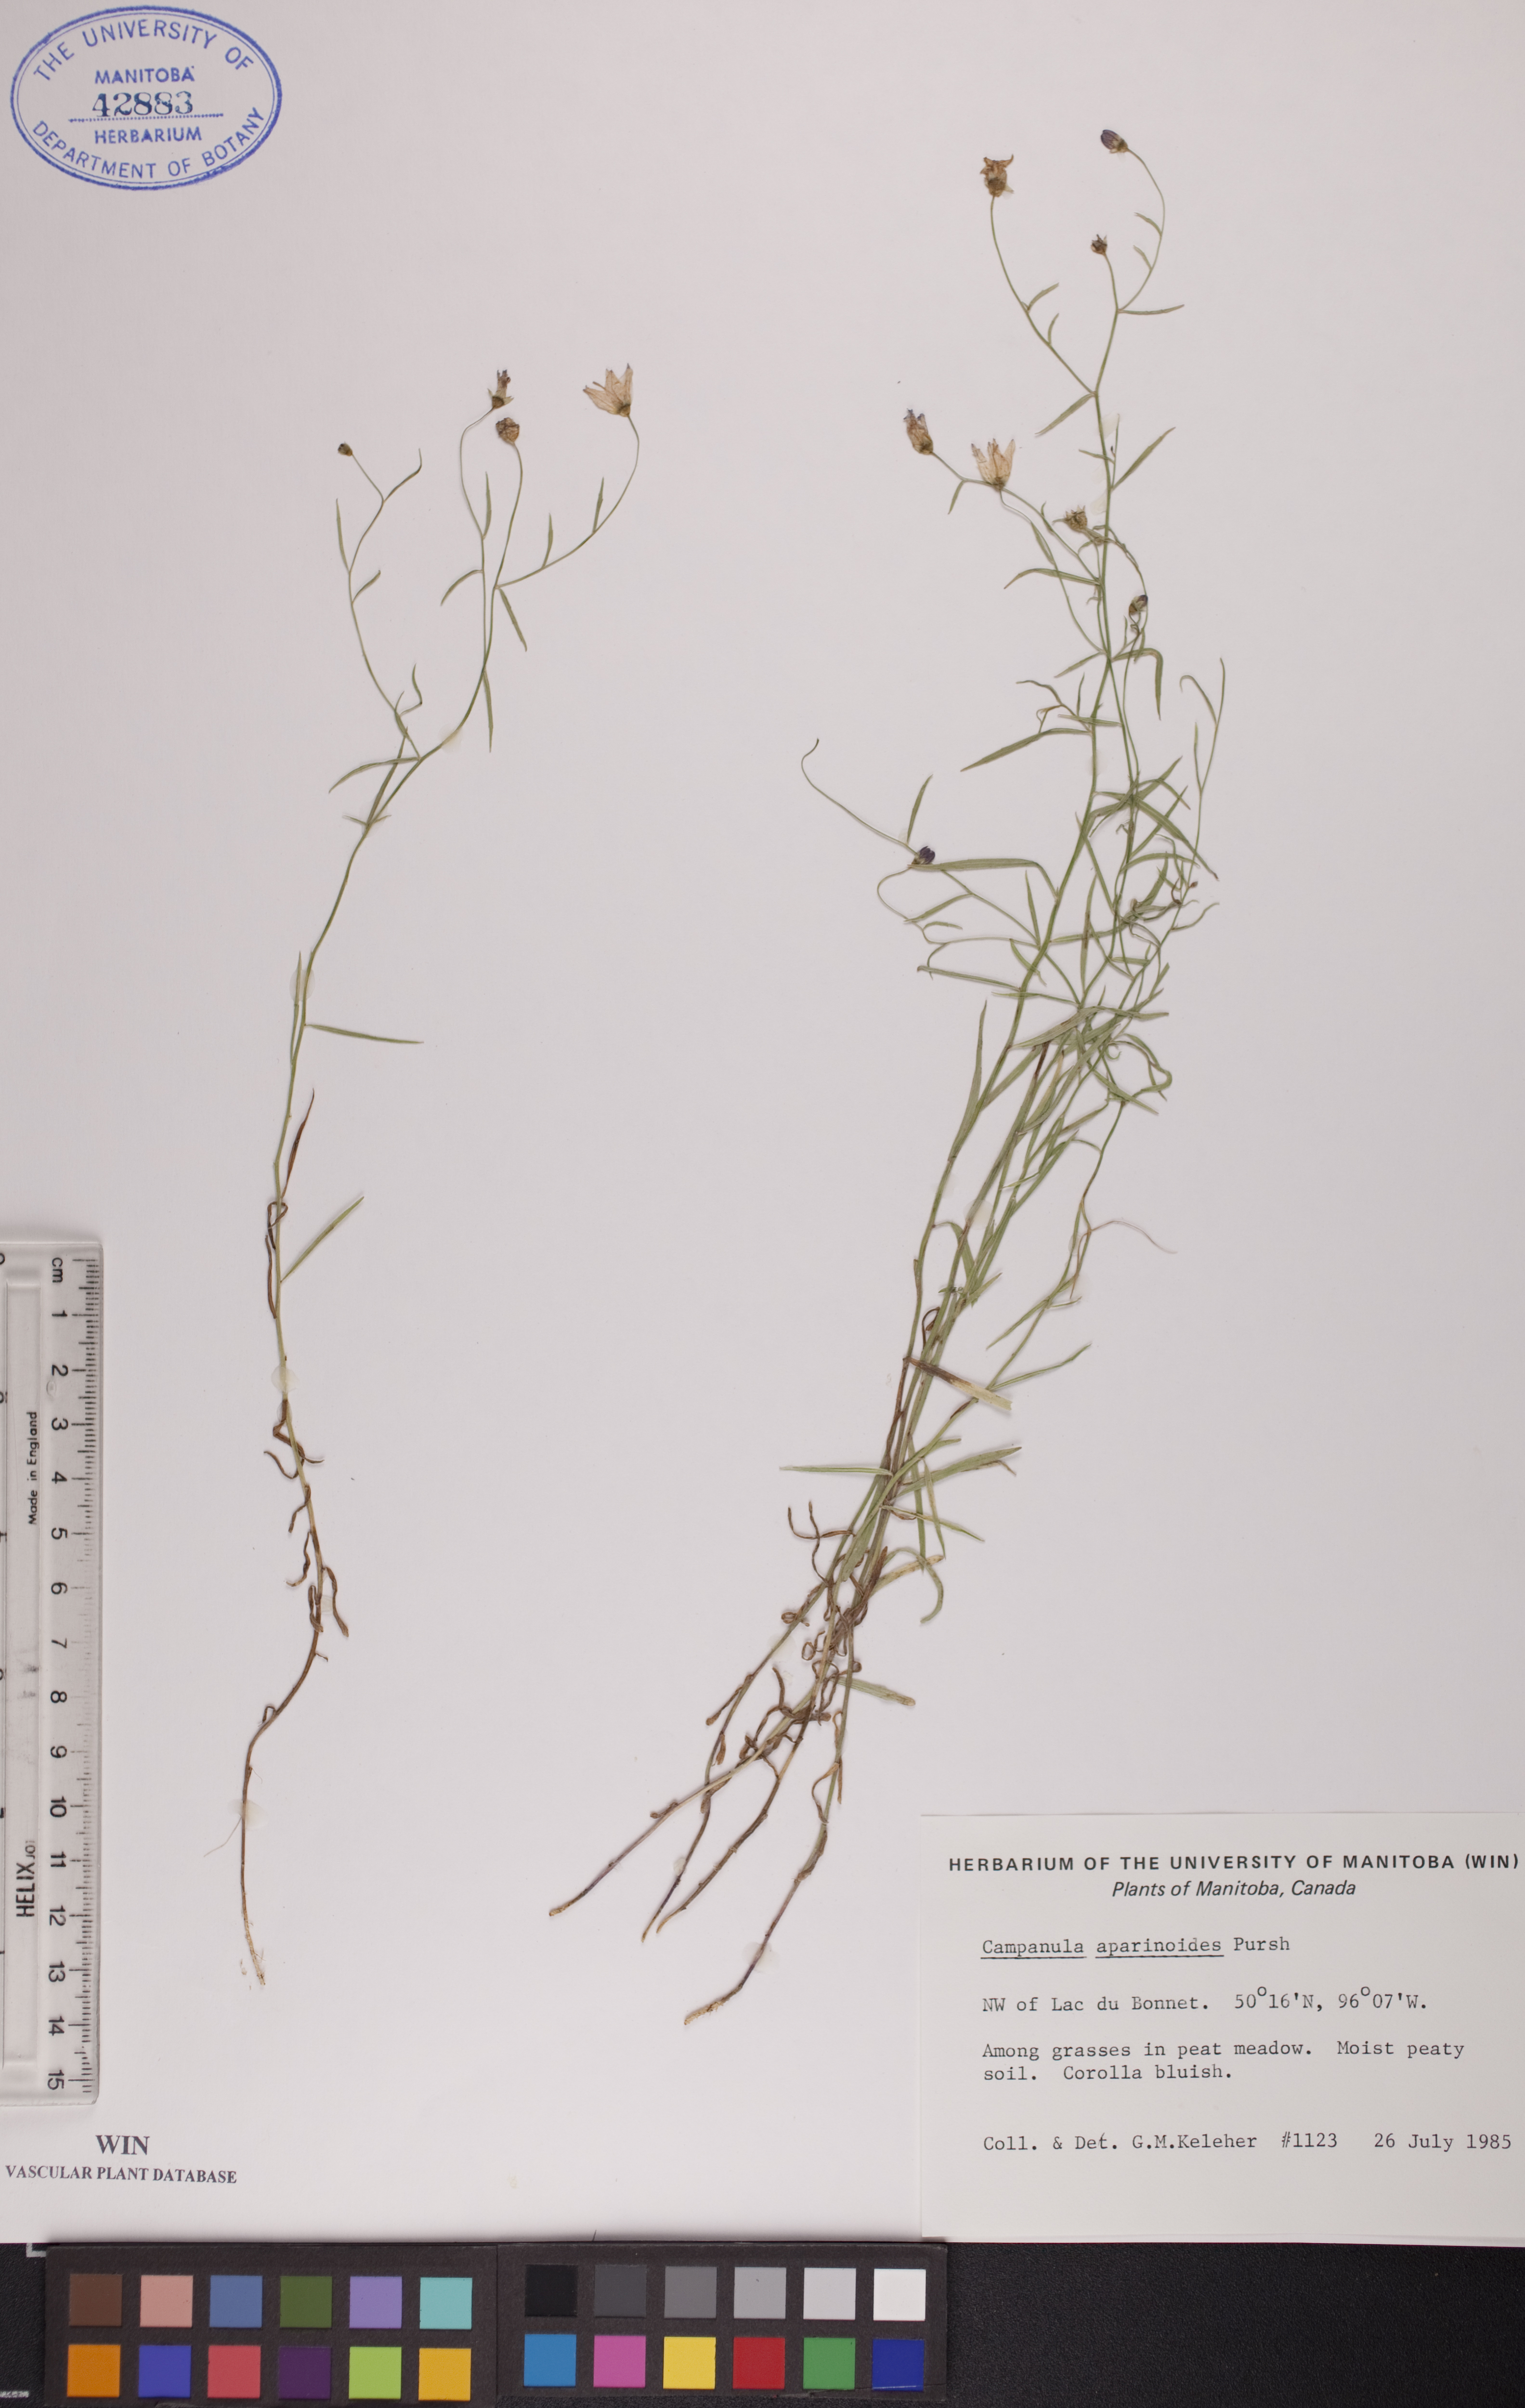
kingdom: Plantae
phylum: Tracheophyta
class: Magnoliopsida
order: Asterales
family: Campanulaceae
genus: Palustricodon
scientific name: Palustricodon aparinoides
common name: Bedstraw bellflower
